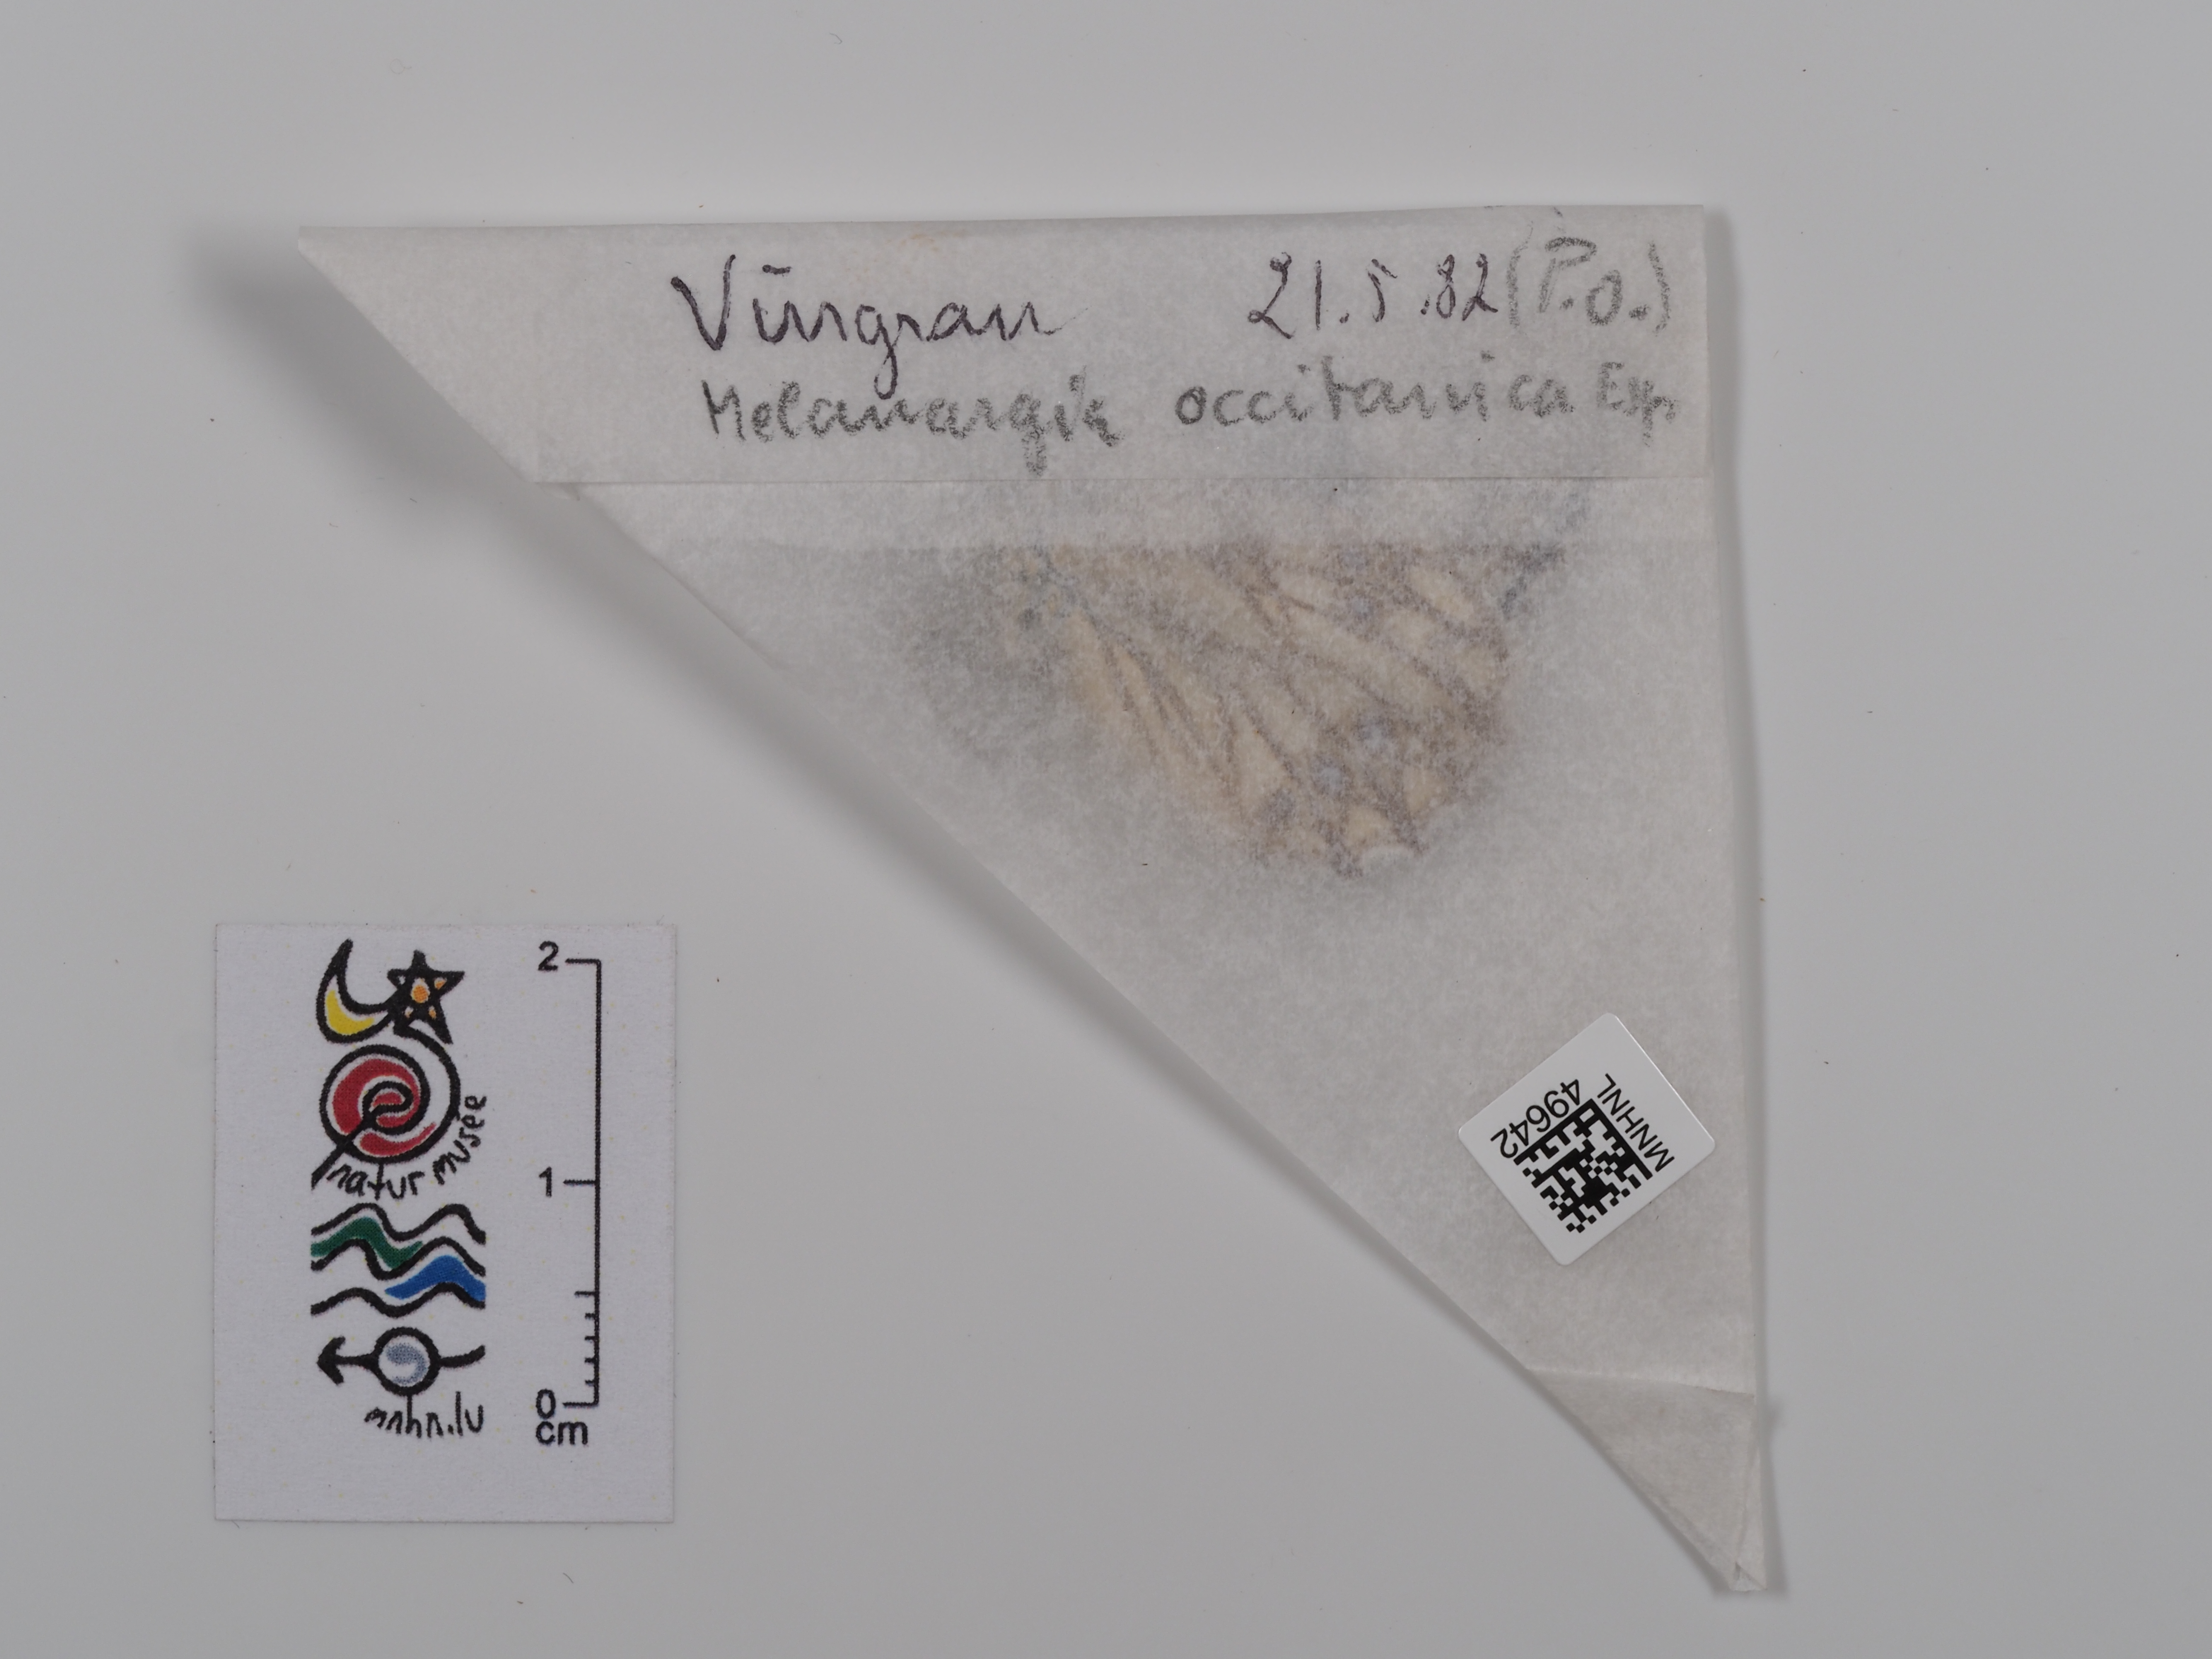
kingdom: Animalia
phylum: Arthropoda
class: Insecta
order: Lepidoptera
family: Nymphalidae
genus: Melanargia
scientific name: Melanargia occitanica
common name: Western marbled white
